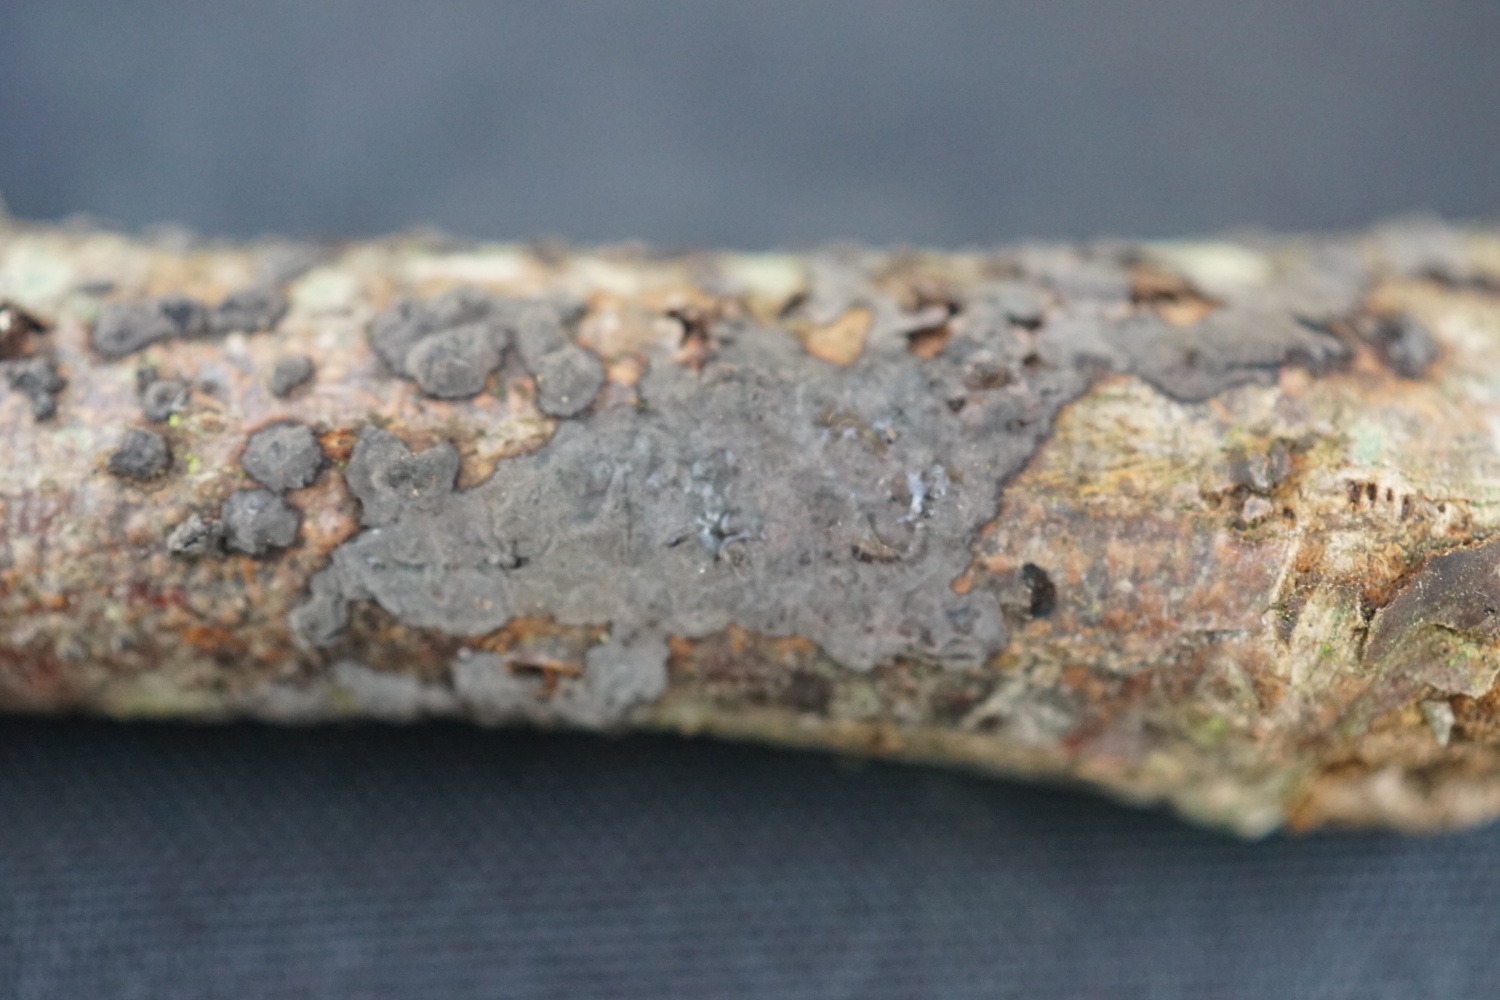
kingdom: Fungi
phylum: Basidiomycota
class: Agaricomycetes
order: Russulales
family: Peniophoraceae
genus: Peniophora
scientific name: Peniophora rufomarginata
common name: linde-voksskind
